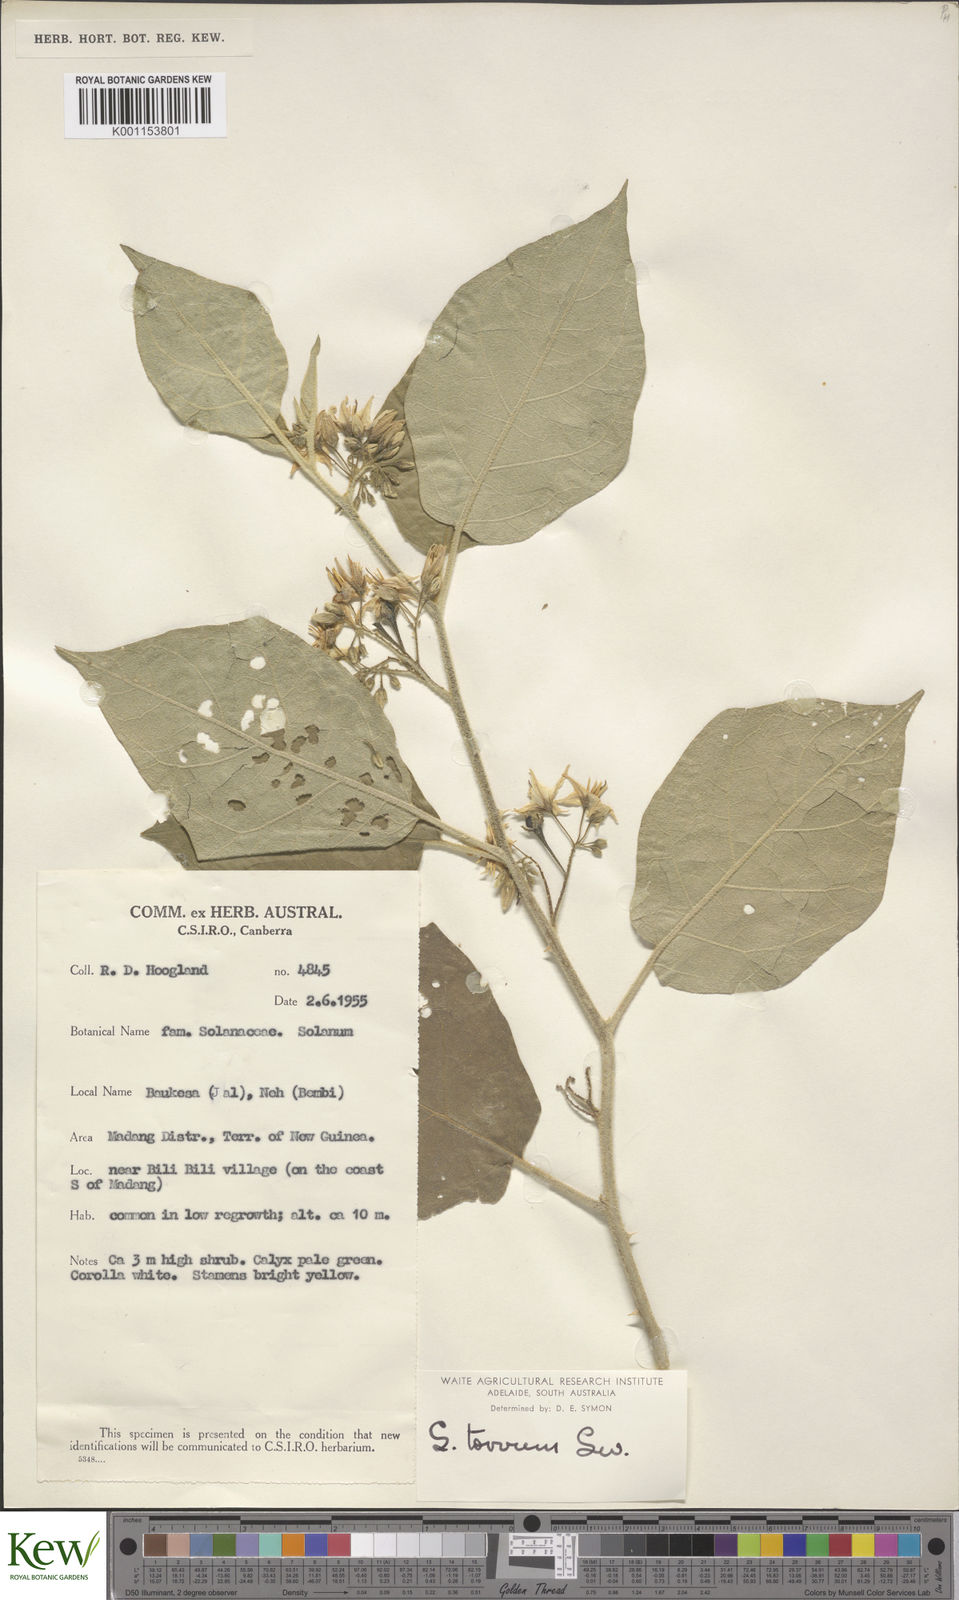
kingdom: Plantae
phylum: Tracheophyta
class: Magnoliopsida
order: Solanales
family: Solanaceae
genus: Solanum
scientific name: Solanum torvum
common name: Turkey berry
